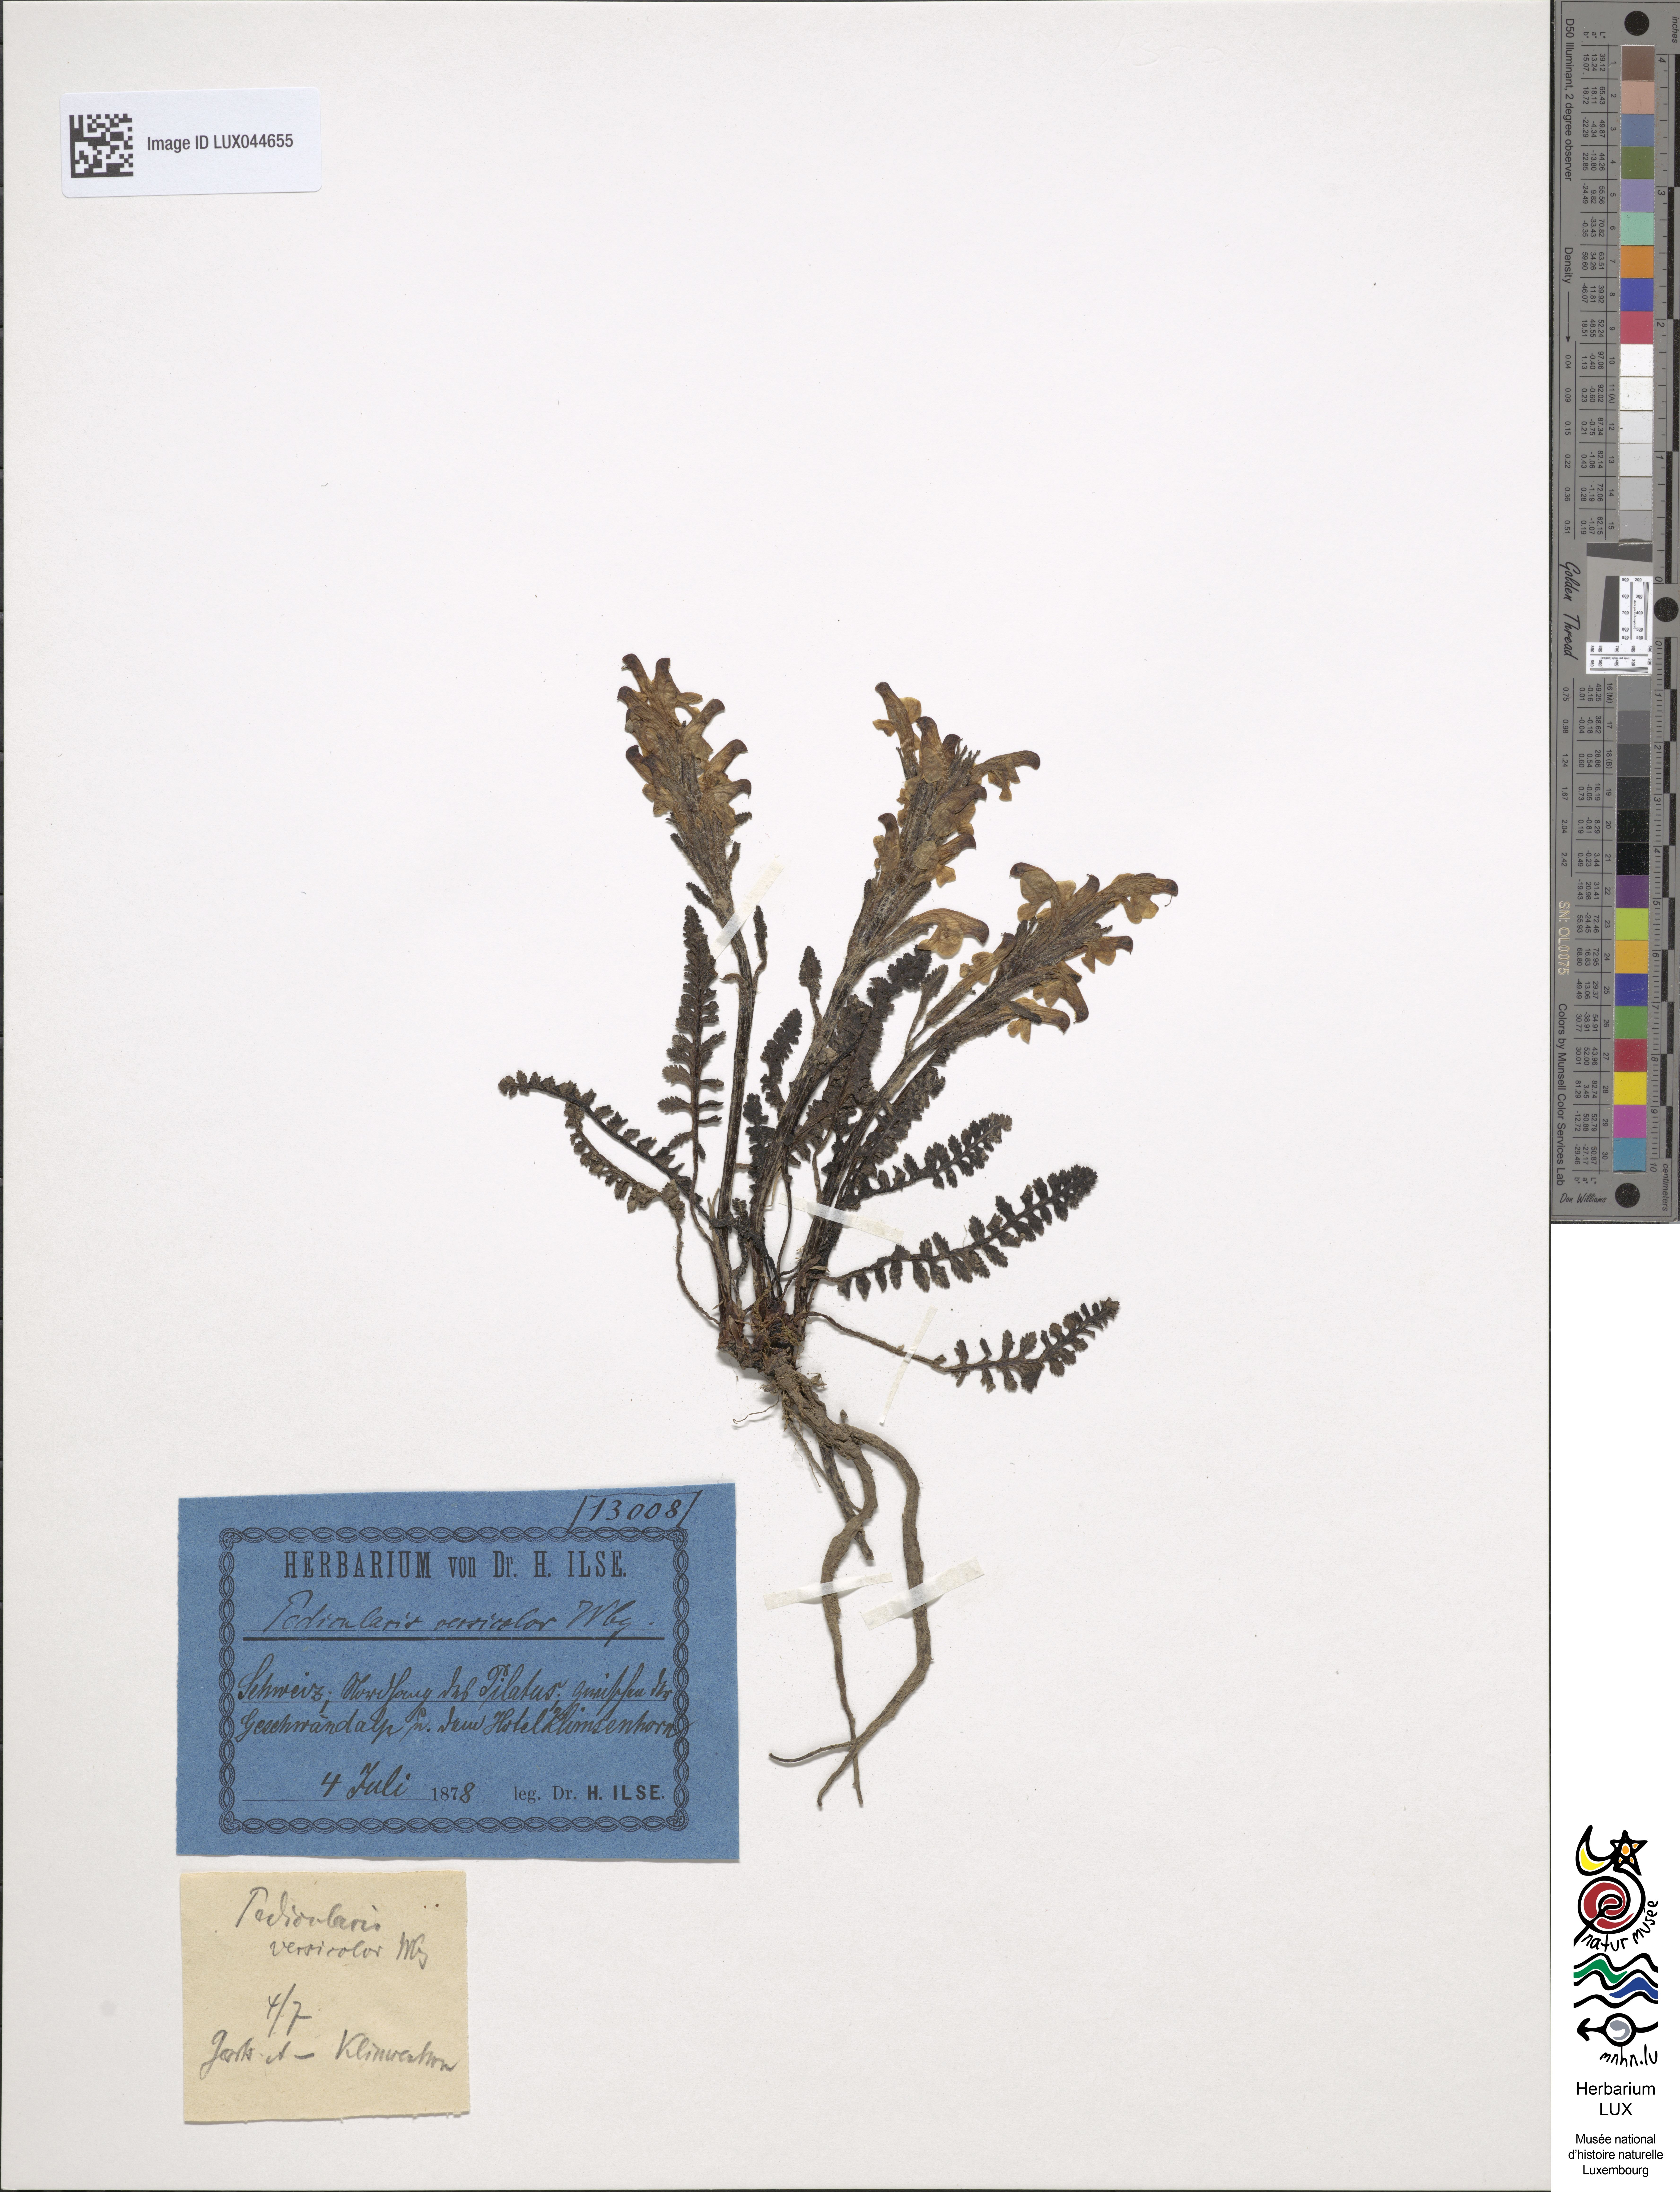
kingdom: Plantae
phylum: Tracheophyta
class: Magnoliopsida
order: Lamiales
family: Orobanchaceae
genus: Pedicularis
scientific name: Pedicularis oederi
